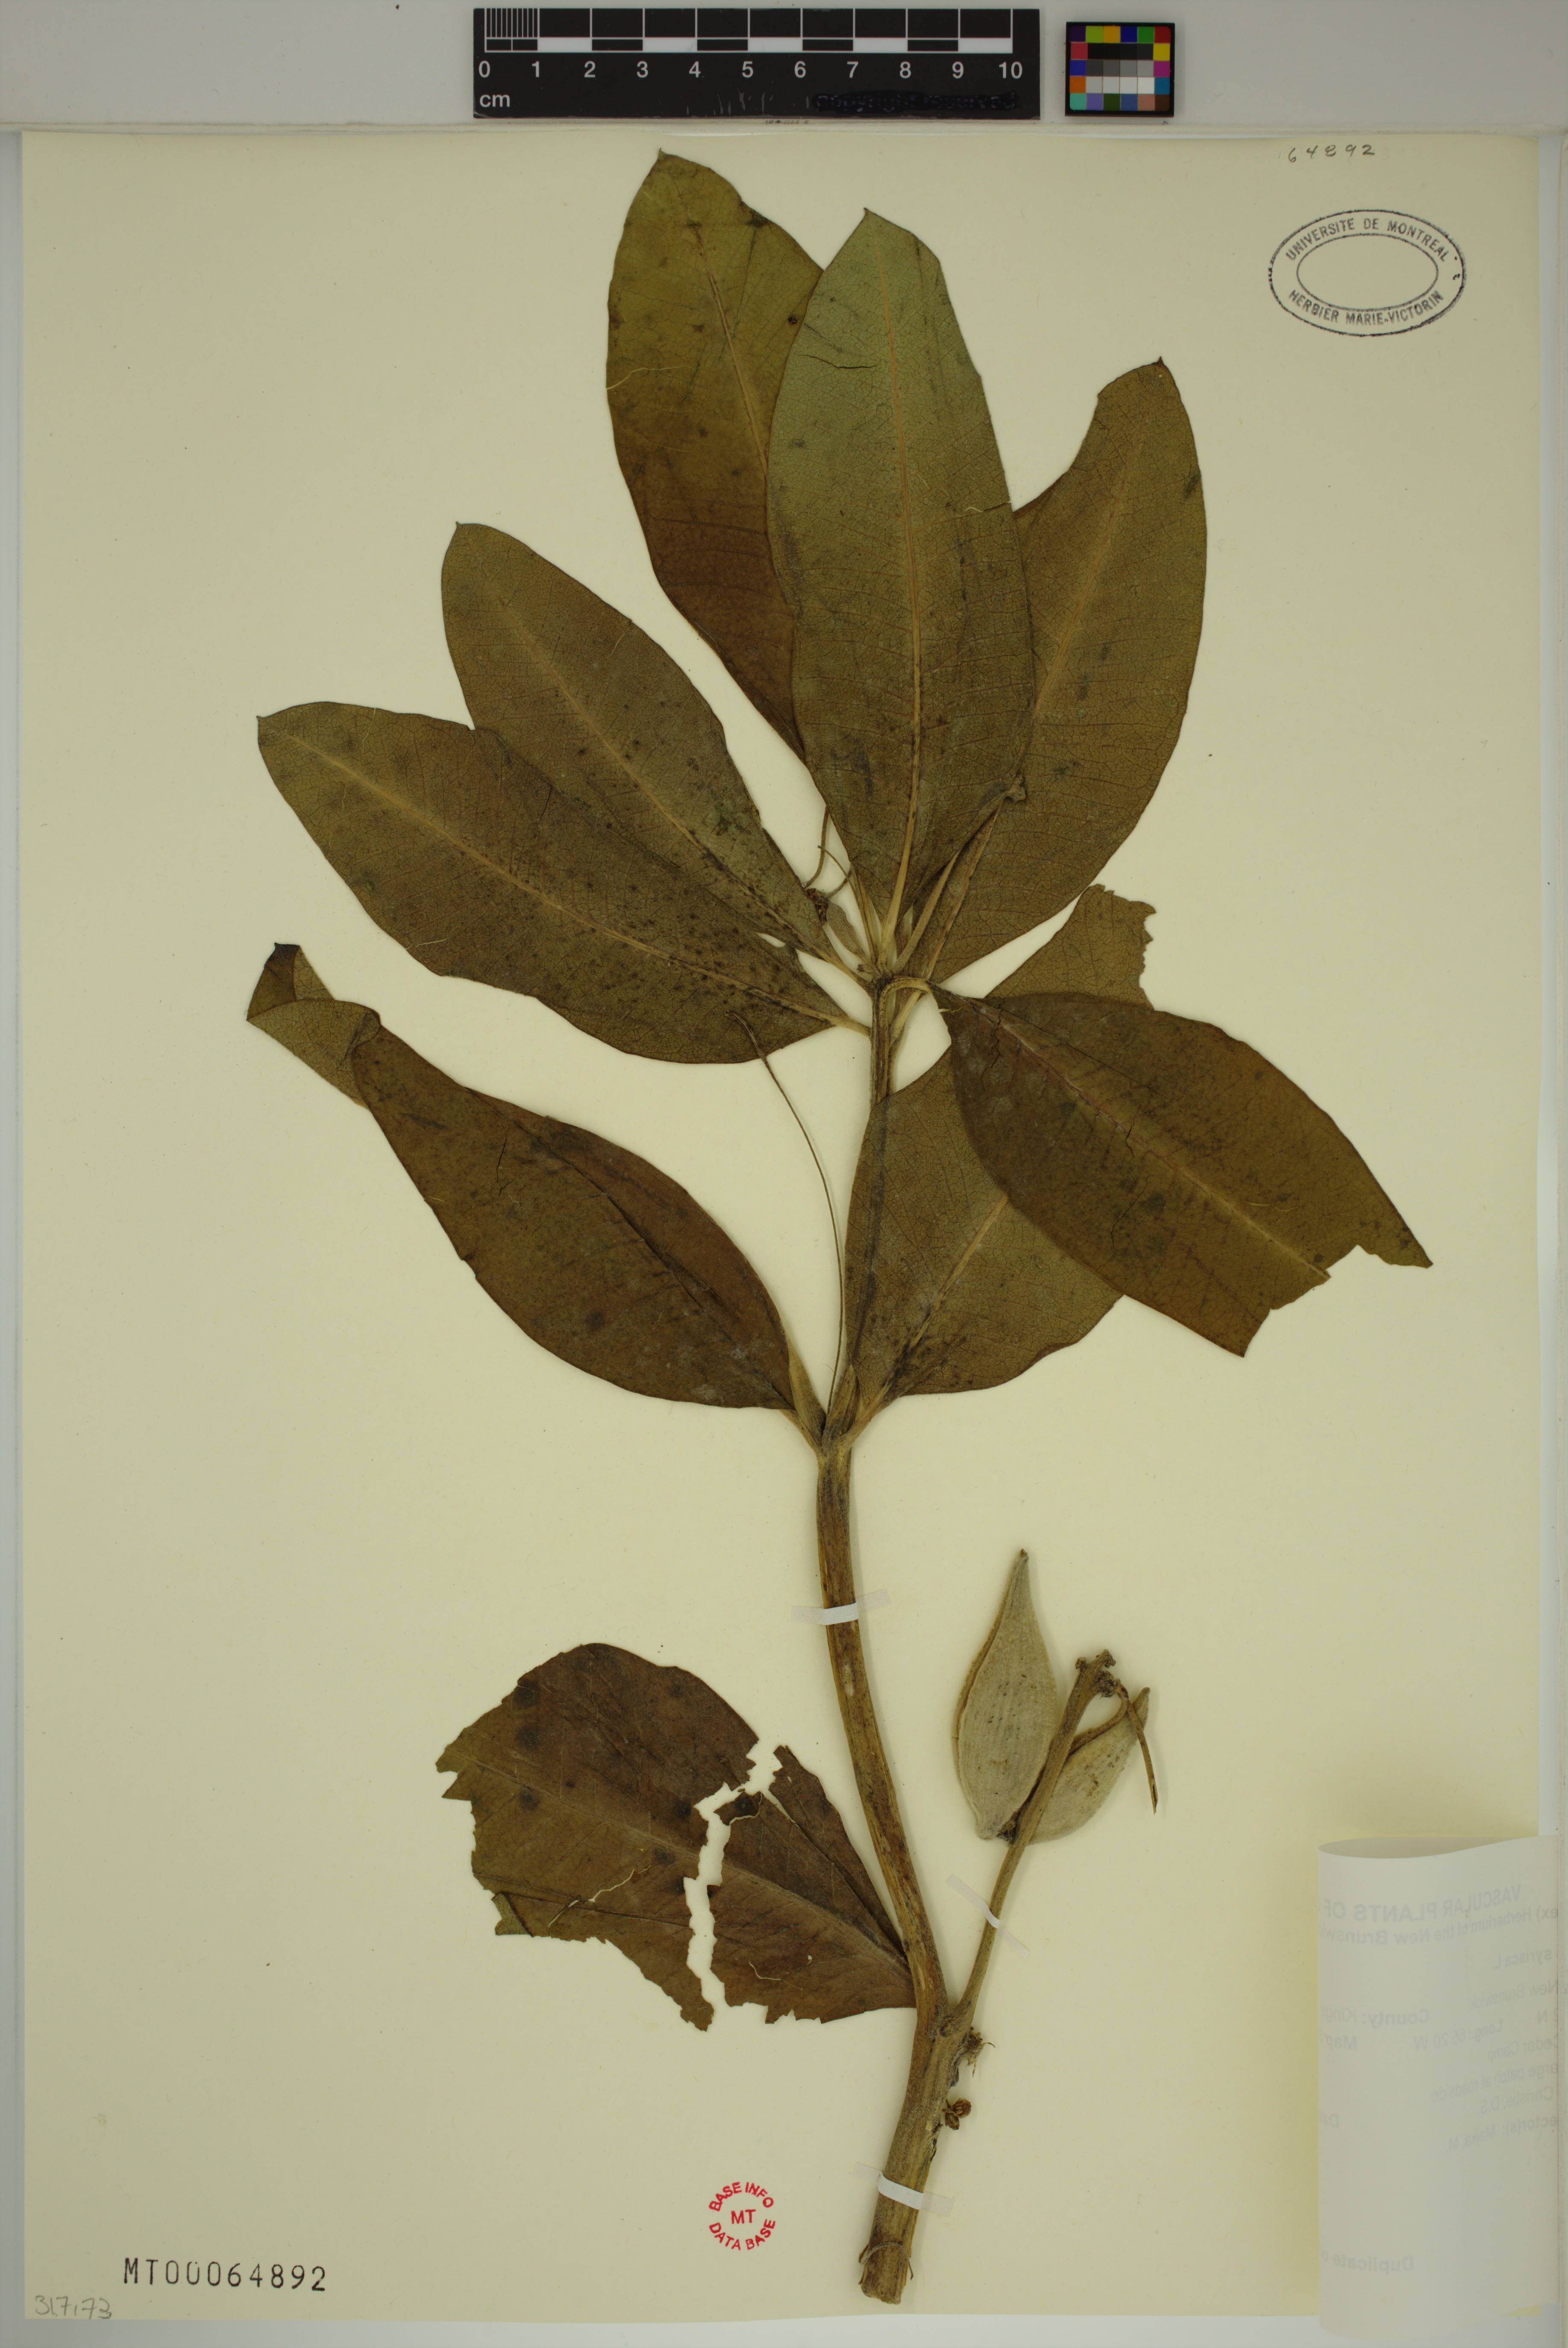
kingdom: Plantae
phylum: Tracheophyta
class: Magnoliopsida
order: Gentianales
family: Apocynaceae
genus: Asclepias
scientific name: Asclepias syriaca
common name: Common milkweed
